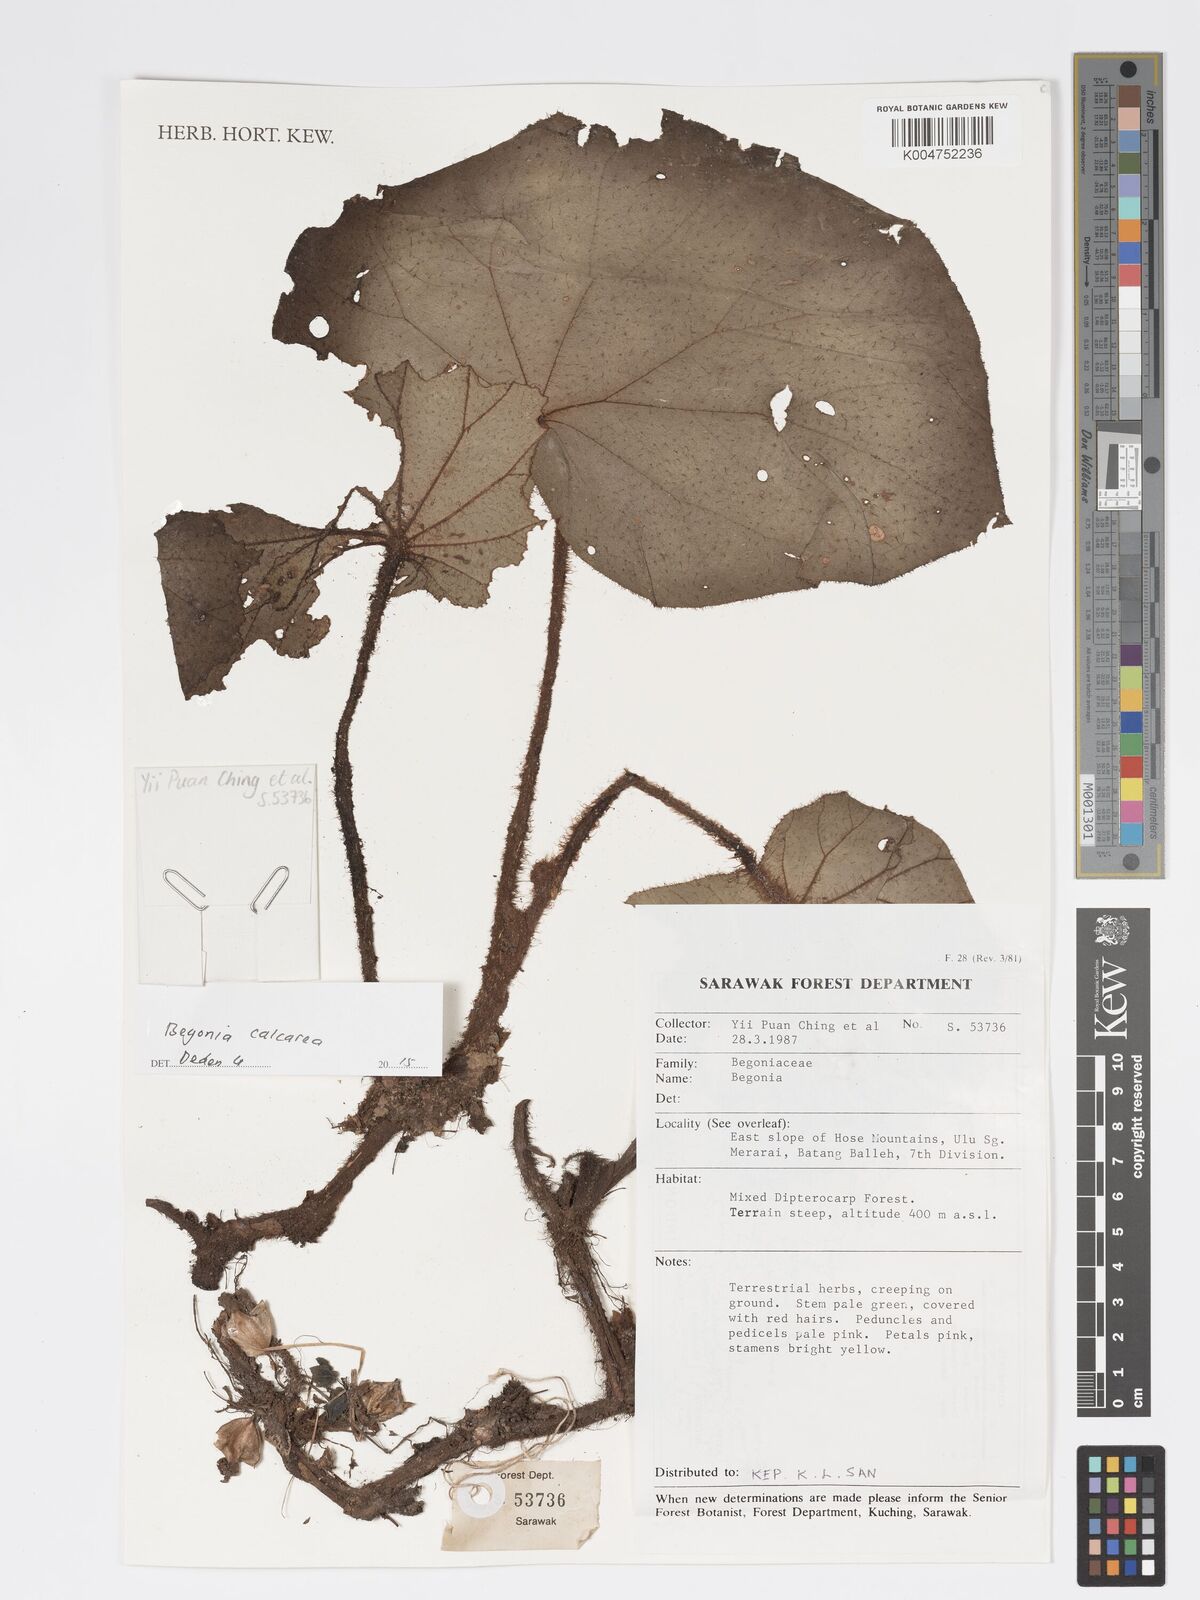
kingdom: Plantae
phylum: Tracheophyta
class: Magnoliopsida
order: Cucurbitales
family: Begoniaceae
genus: Begonia
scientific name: Begonia
